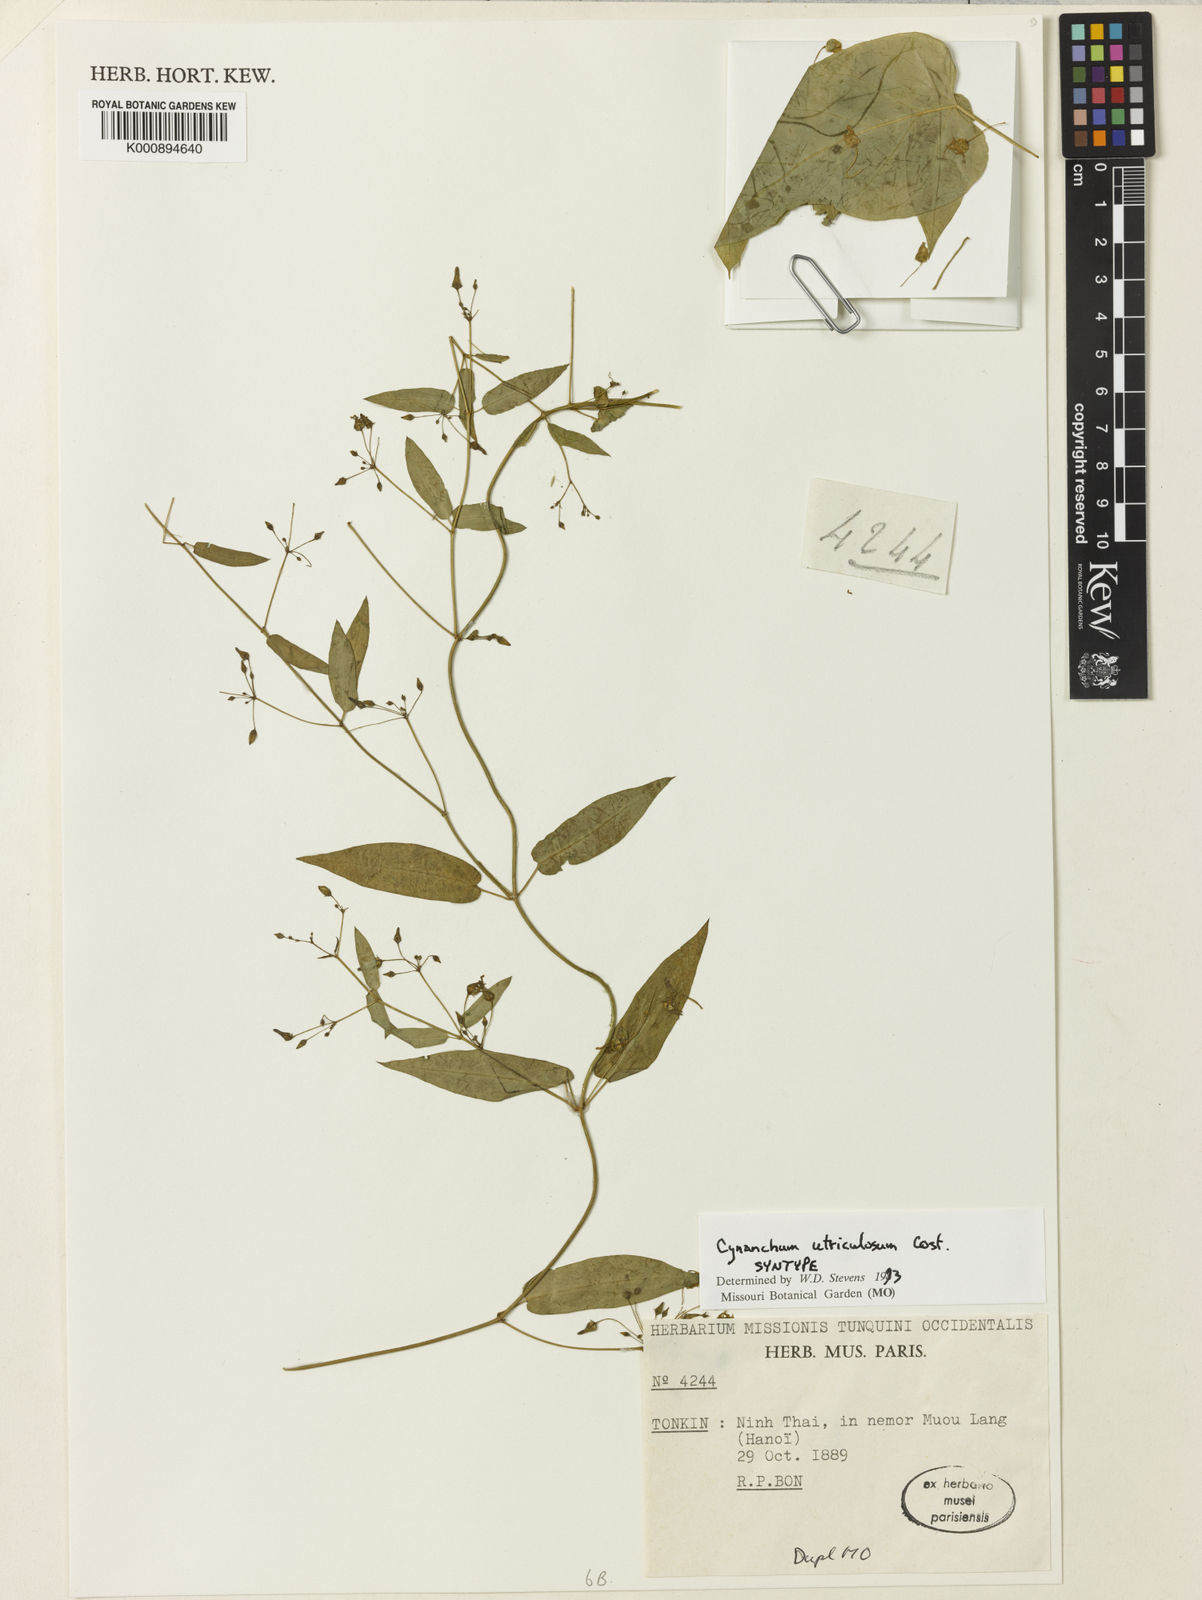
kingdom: Plantae
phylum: Tracheophyta
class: Magnoliopsida
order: Gentianales
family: Apocynaceae
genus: Vincetoxicum
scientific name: Vincetoxicum utriculosum
